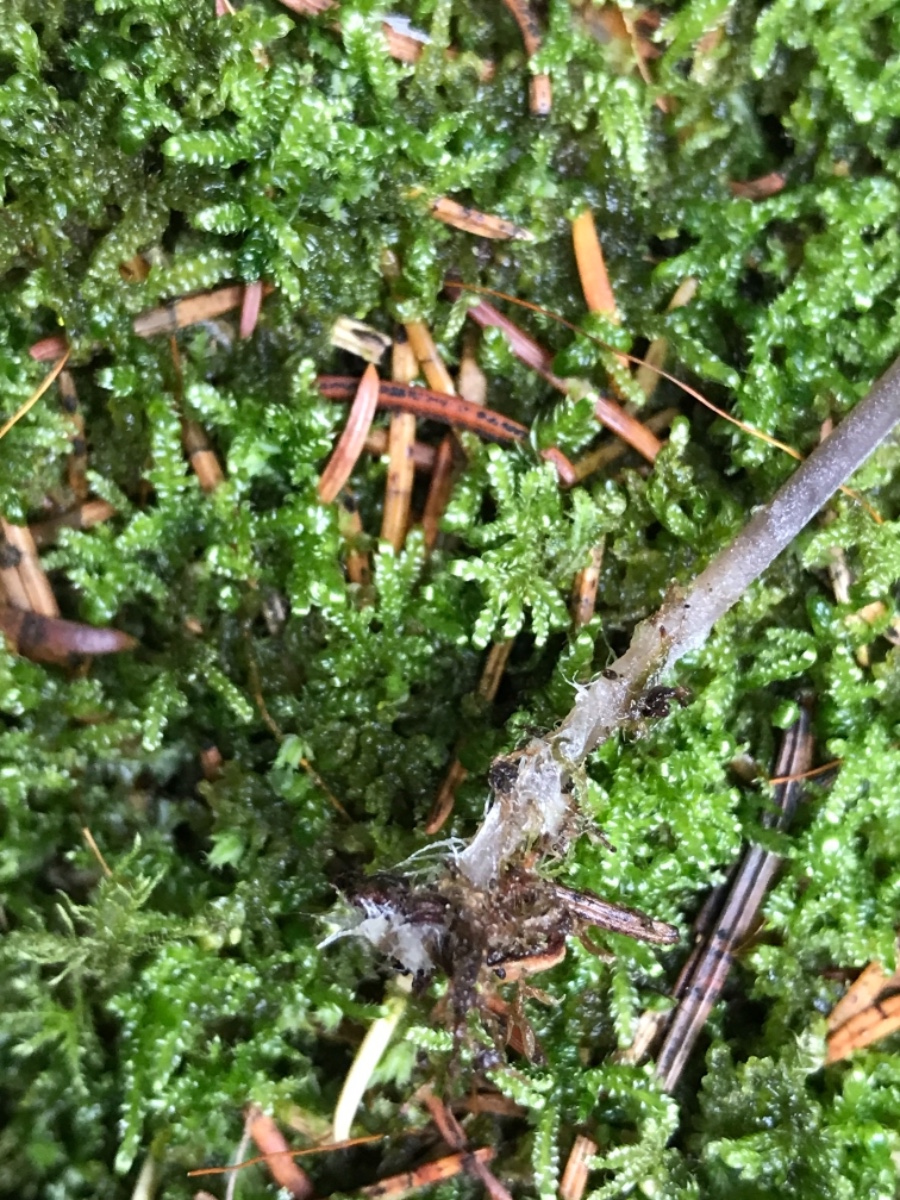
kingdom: Fungi
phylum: Basidiomycota
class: Agaricomycetes
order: Agaricales
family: Mycenaceae
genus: Mycena
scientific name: Mycena leptocephala
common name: klor-huesvamp
